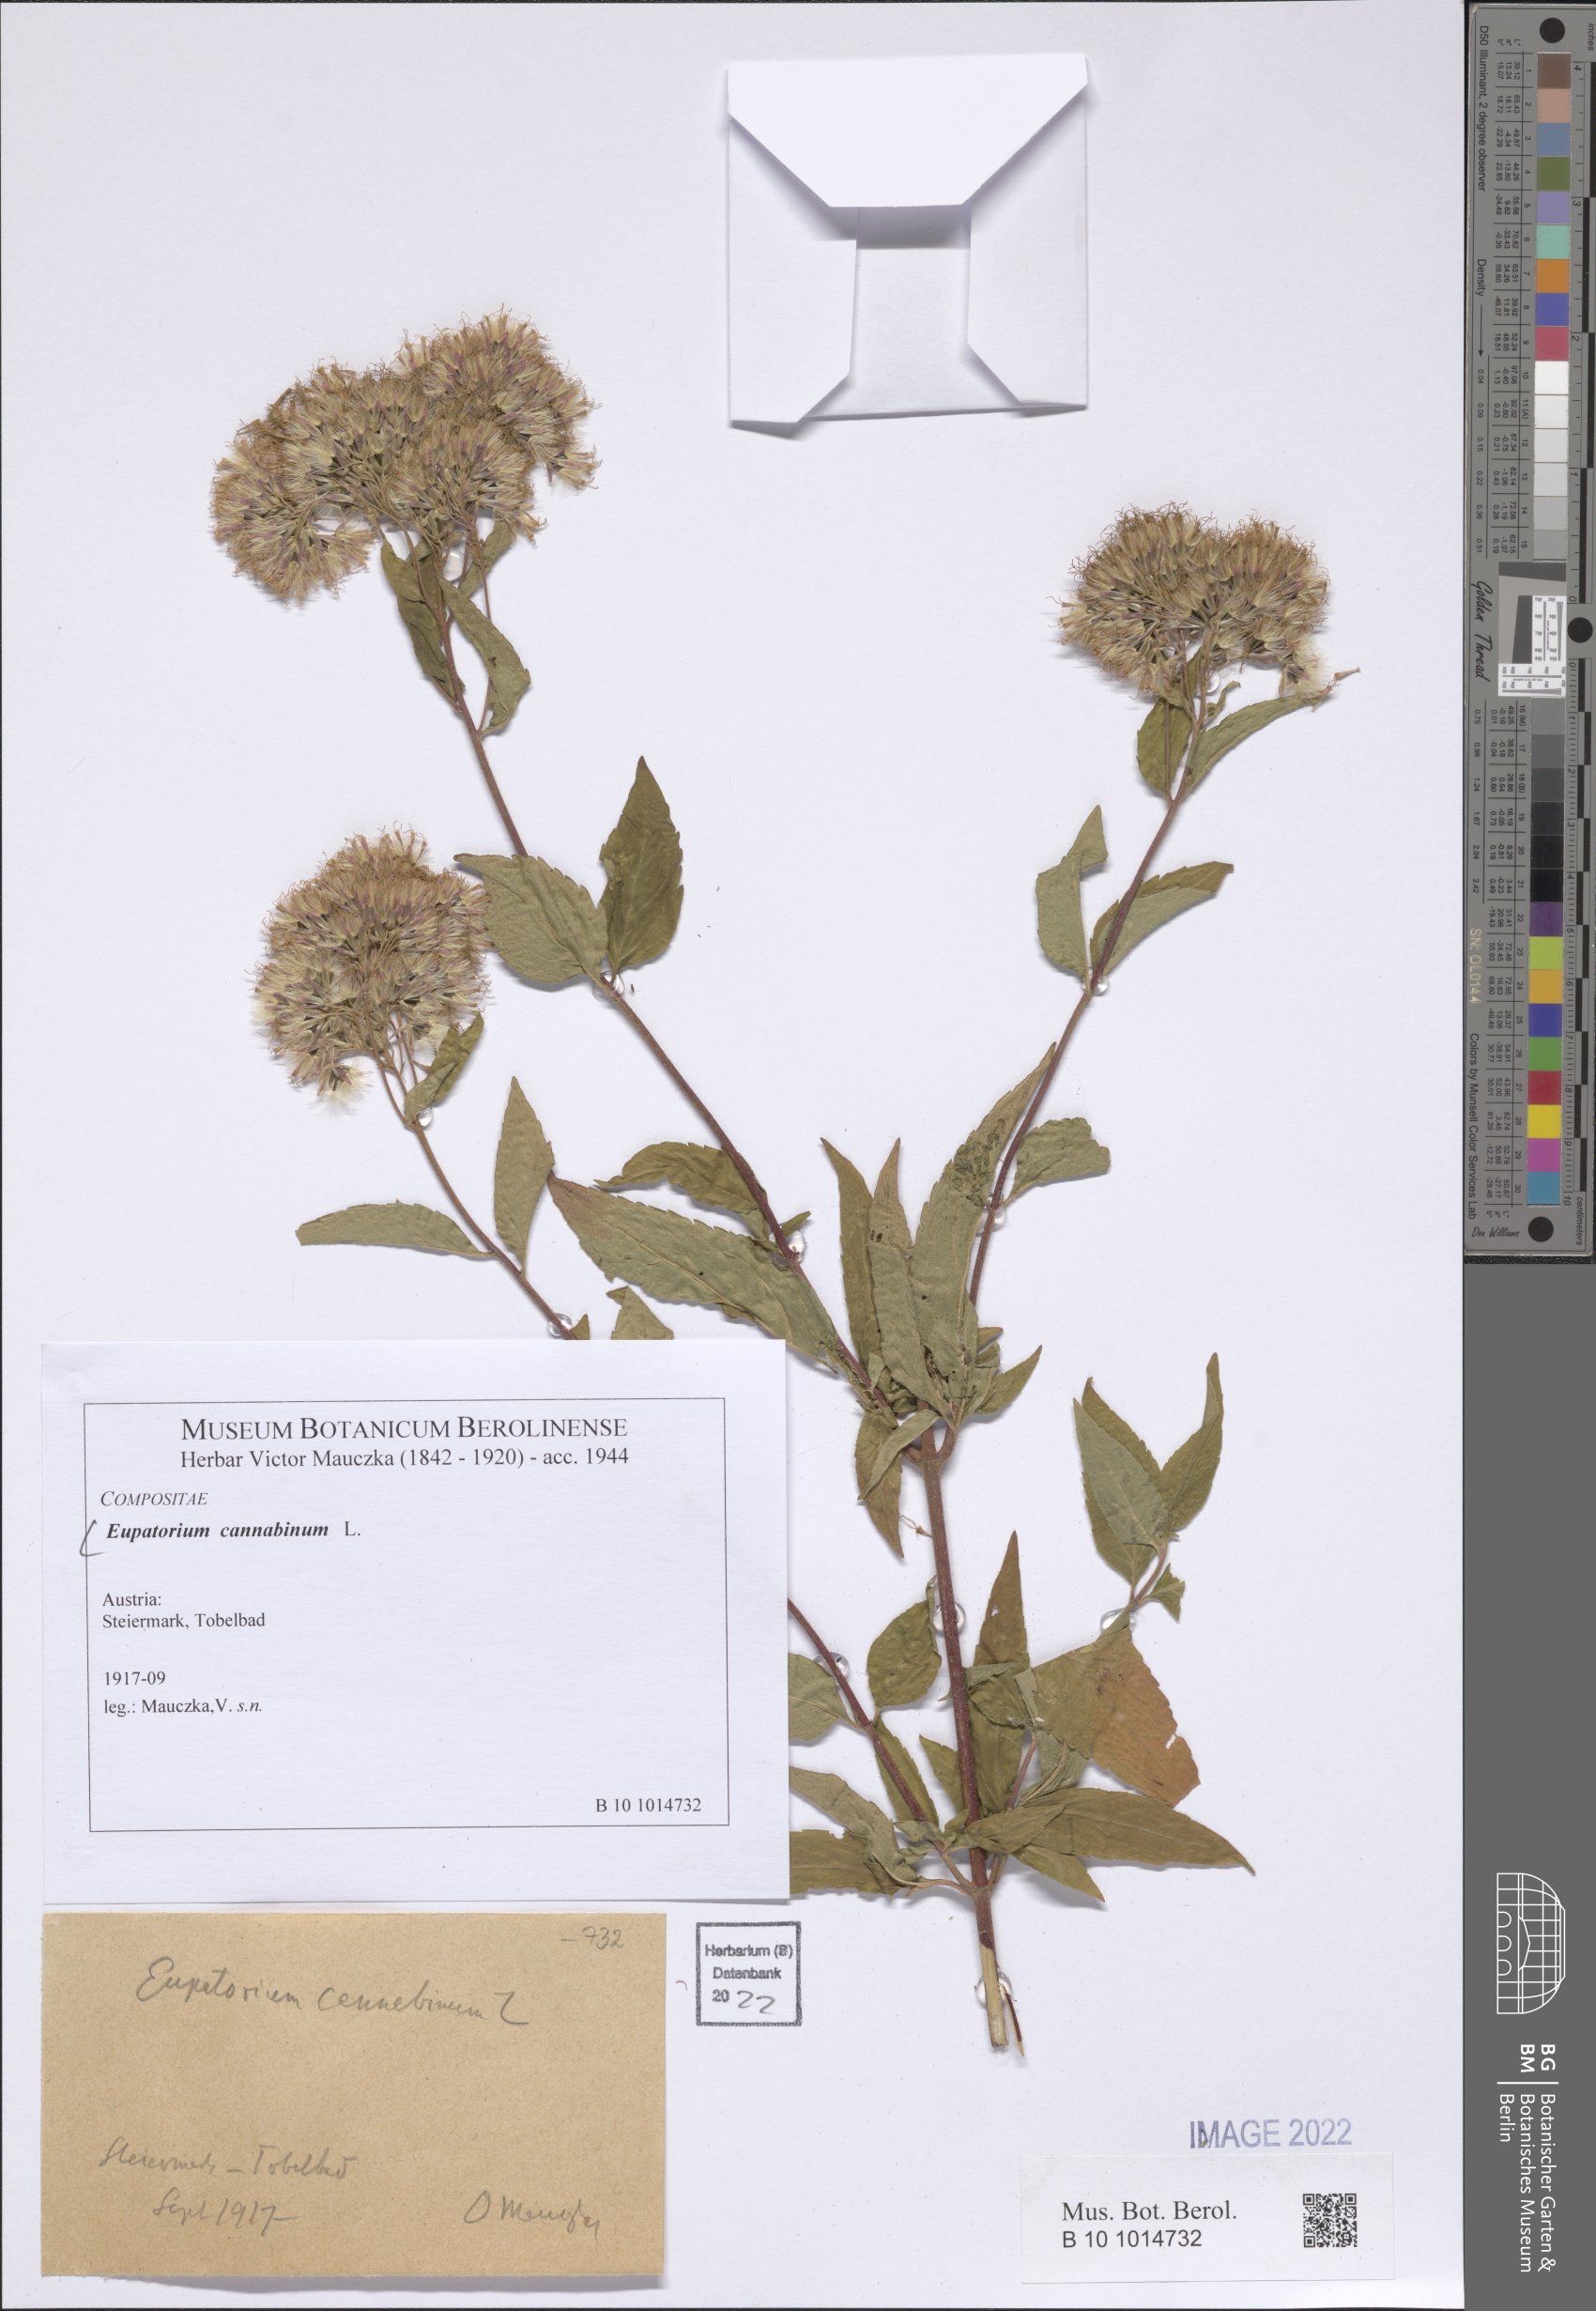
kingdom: Plantae
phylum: Tracheophyta
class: Magnoliopsida
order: Asterales
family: Asteraceae
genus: Eupatorium
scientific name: Eupatorium cannabinum
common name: Hemp-agrimony
